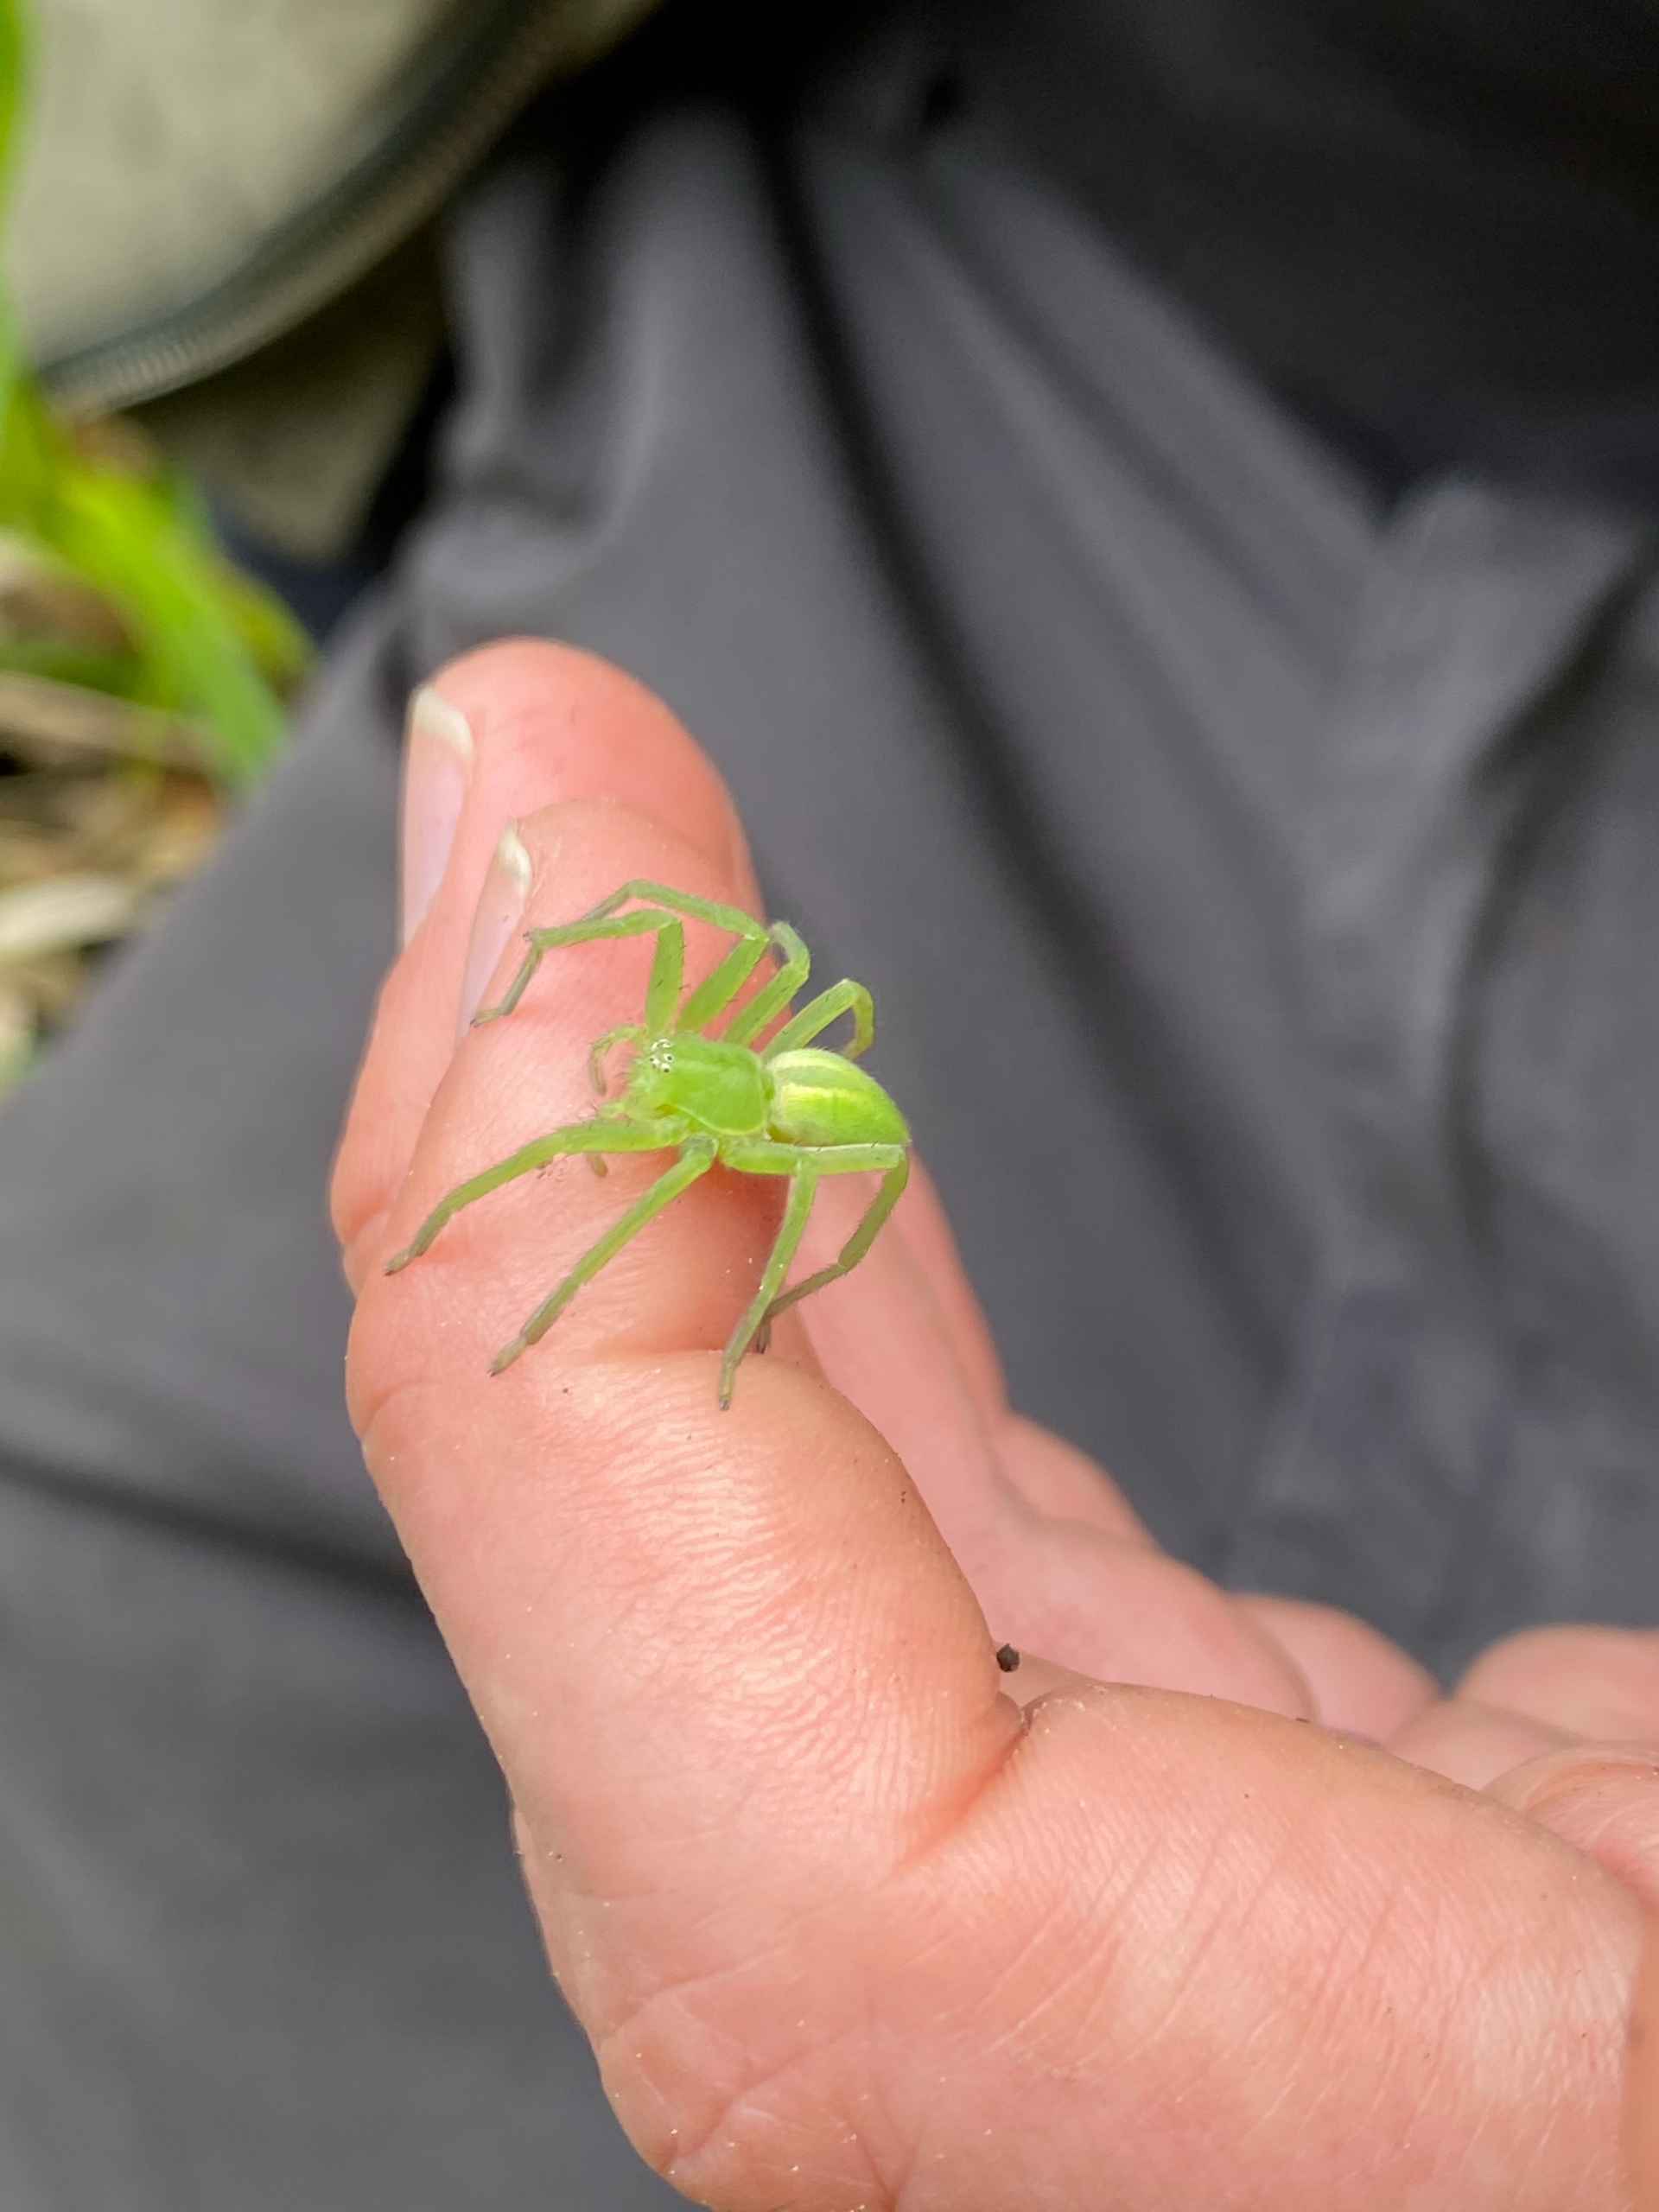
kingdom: Animalia
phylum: Arthropoda
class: Arachnida
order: Araneae
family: Sparassidae
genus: Micrommata
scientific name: Micrommata virescens
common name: Smaragdedderkop
